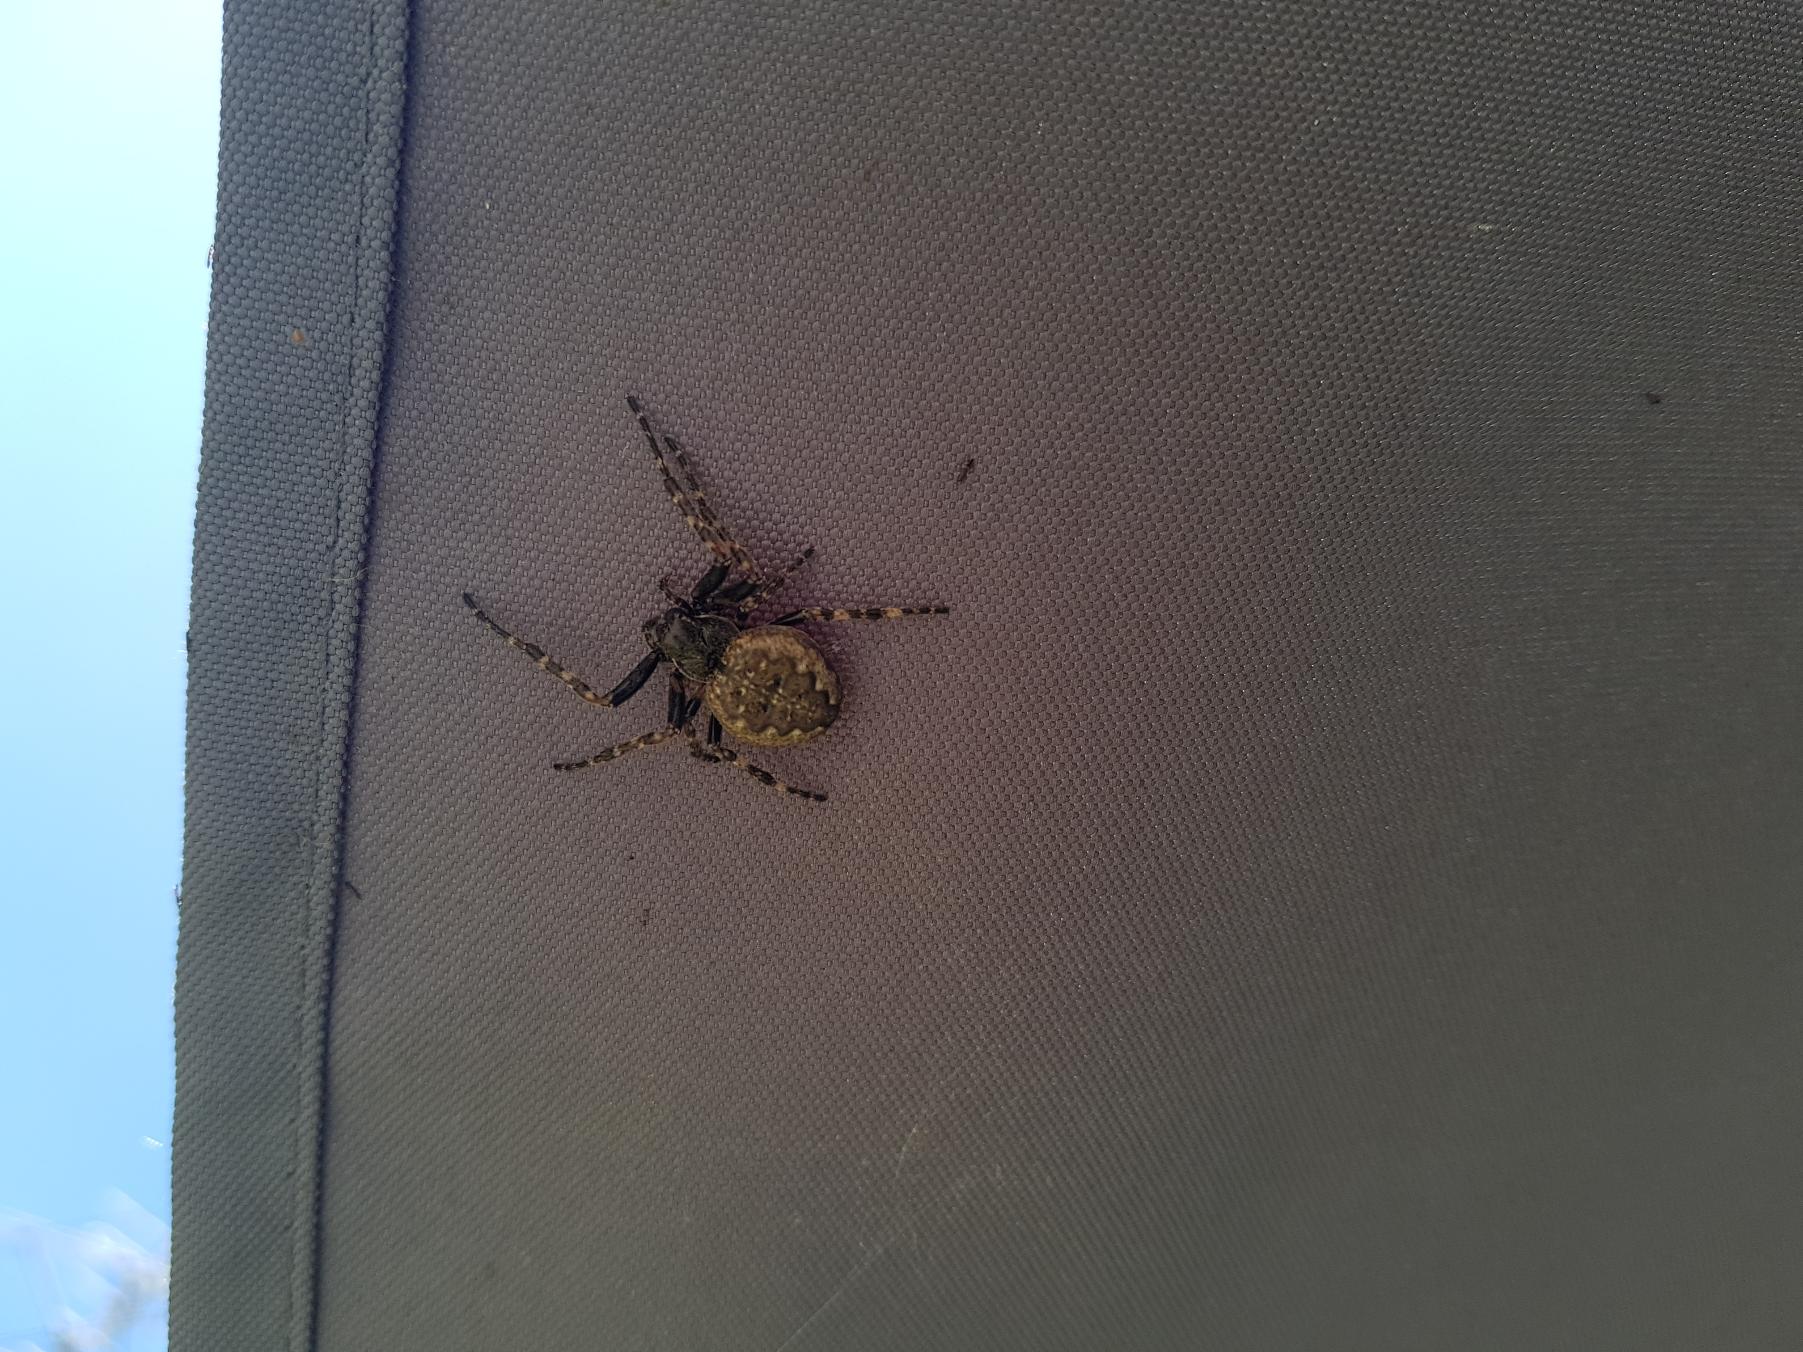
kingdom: Animalia
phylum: Arthropoda
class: Arachnida
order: Araneae
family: Araneidae
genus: Nuctenea
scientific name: Nuctenea umbratica
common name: Flad hjulspinder
